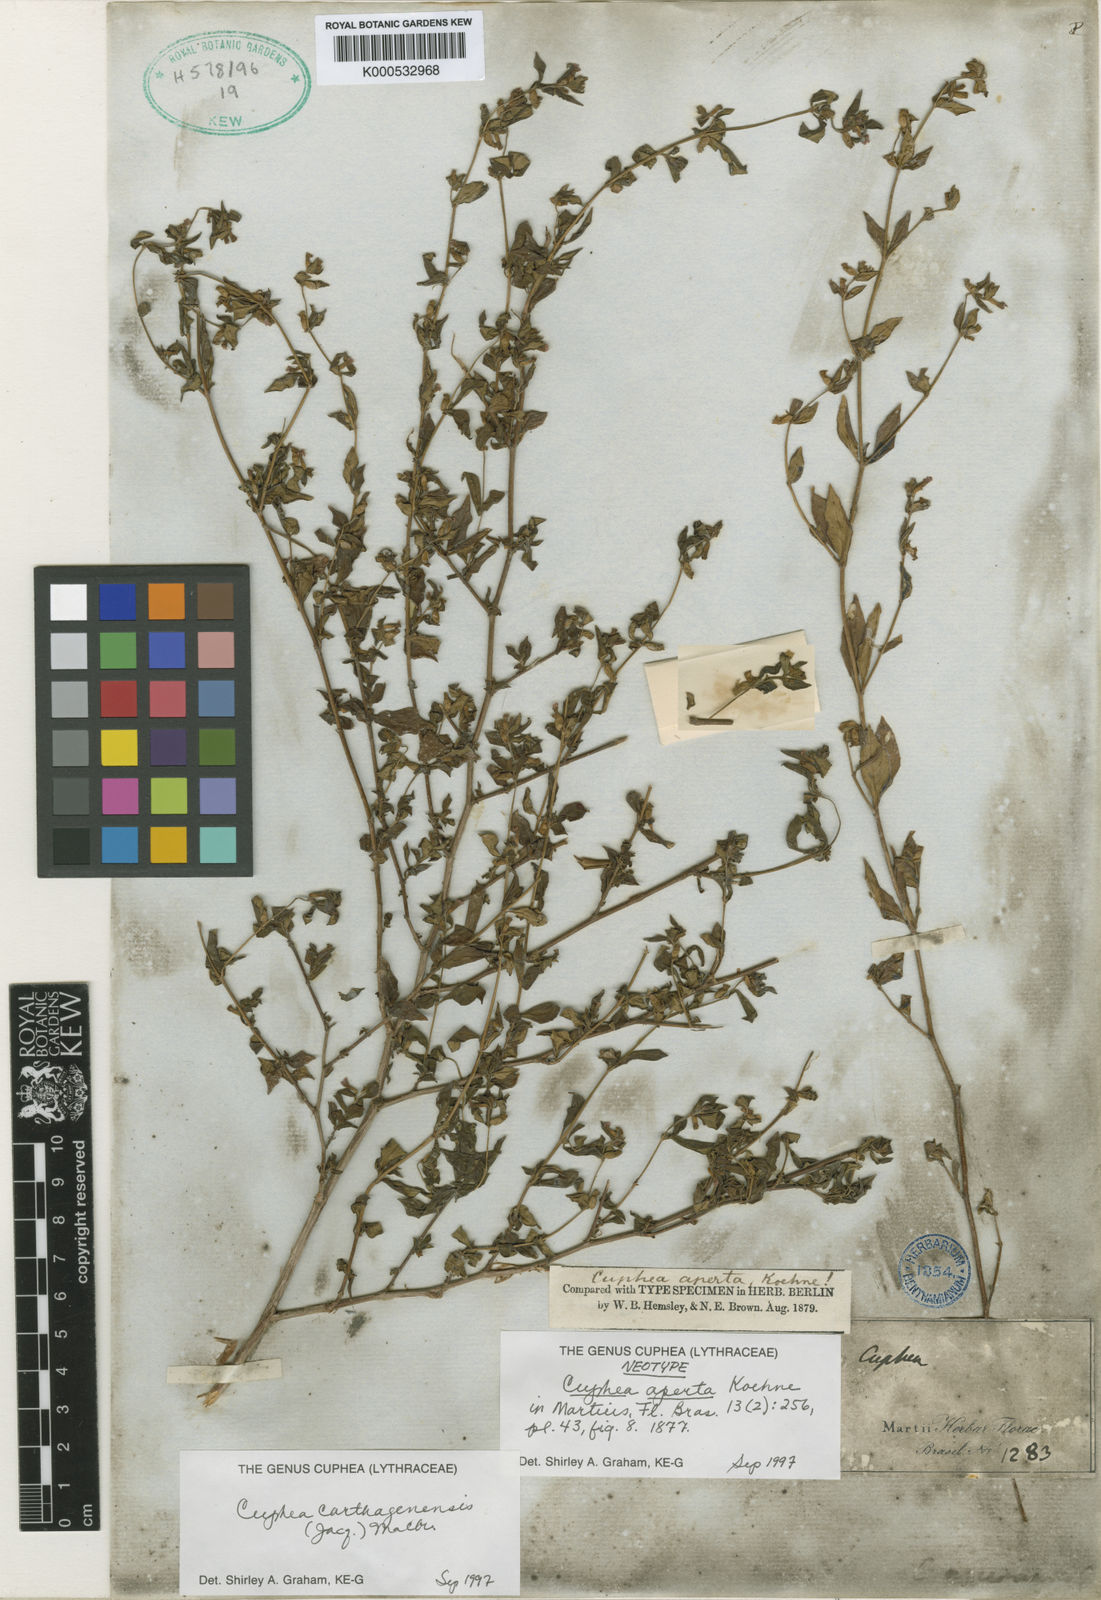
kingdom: Plantae
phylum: Tracheophyta
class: Magnoliopsida
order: Myrtales
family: Lythraceae
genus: Cuphea
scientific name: Cuphea carthagenensis
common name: Colombian waxweed
